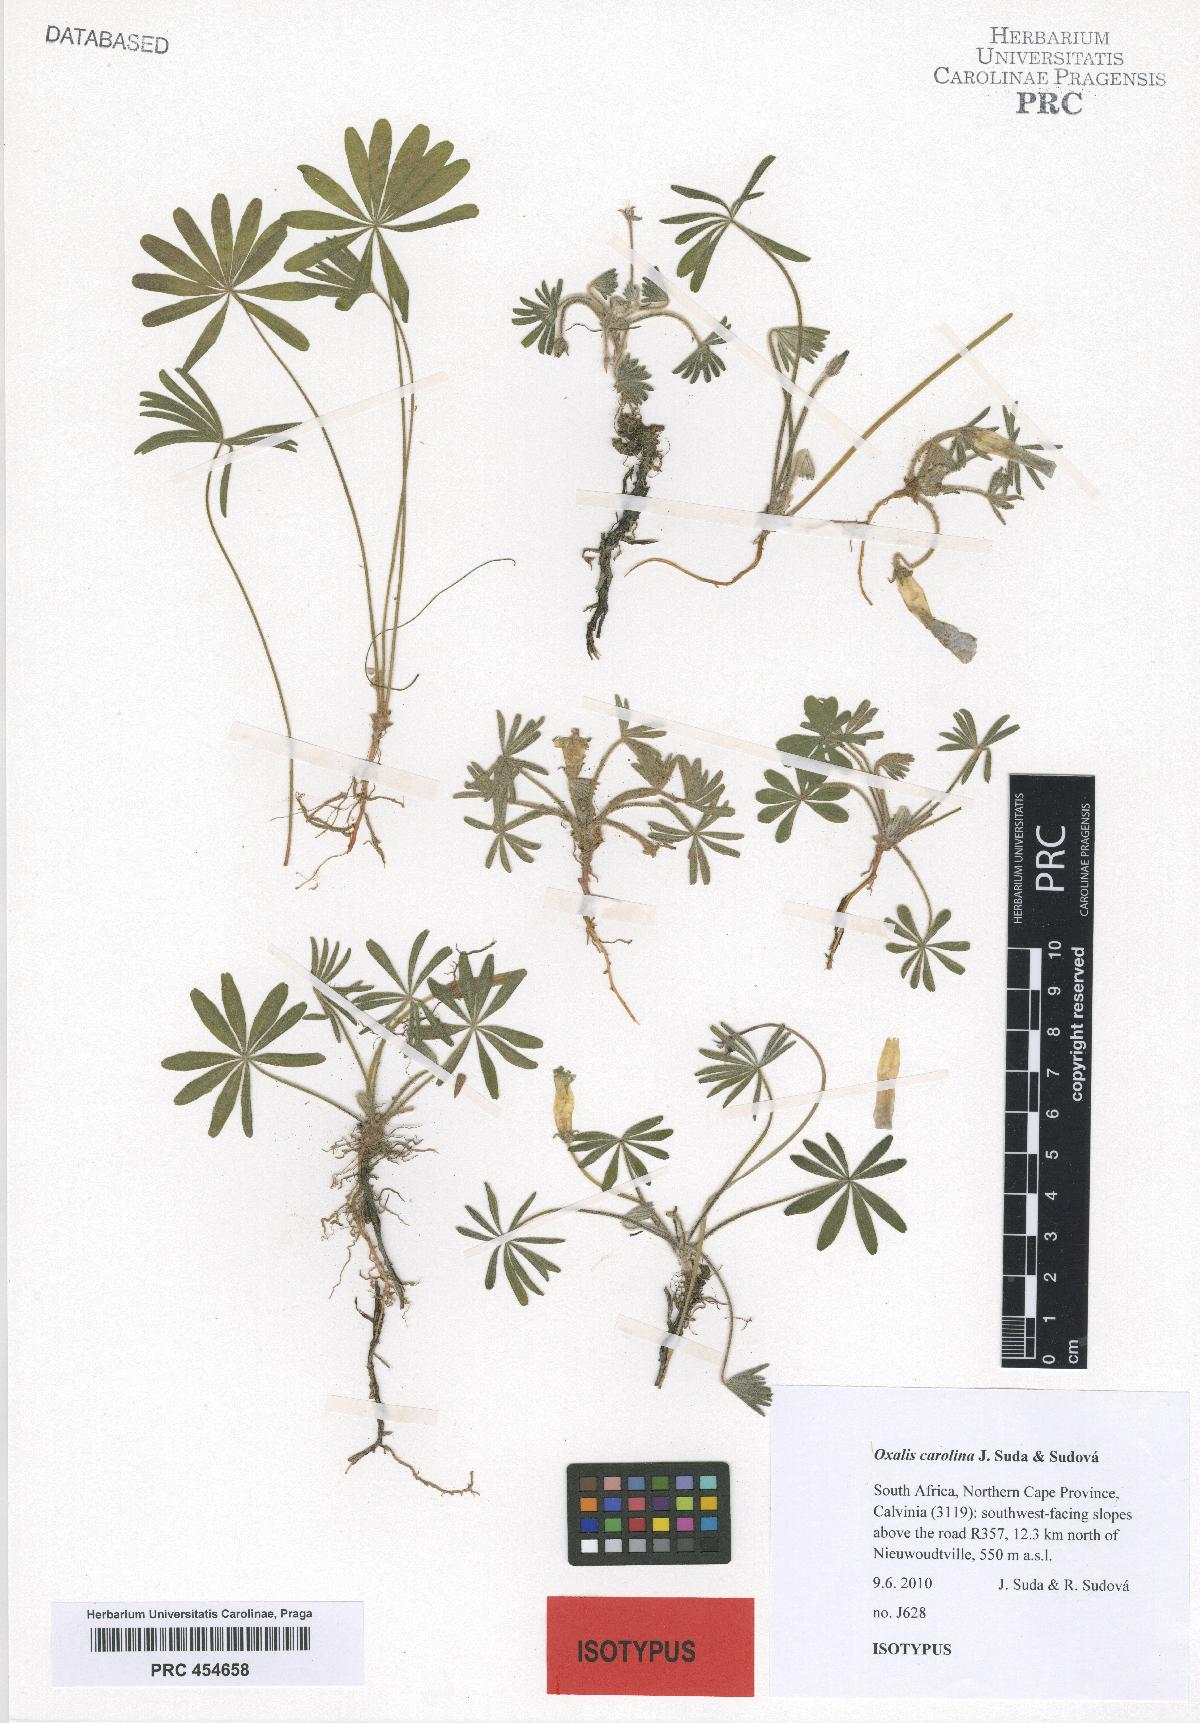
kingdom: Plantae
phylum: Tracheophyta
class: Magnoliopsida
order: Oxalidales
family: Oxalidaceae
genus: Oxalis
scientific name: Oxalis carolina
